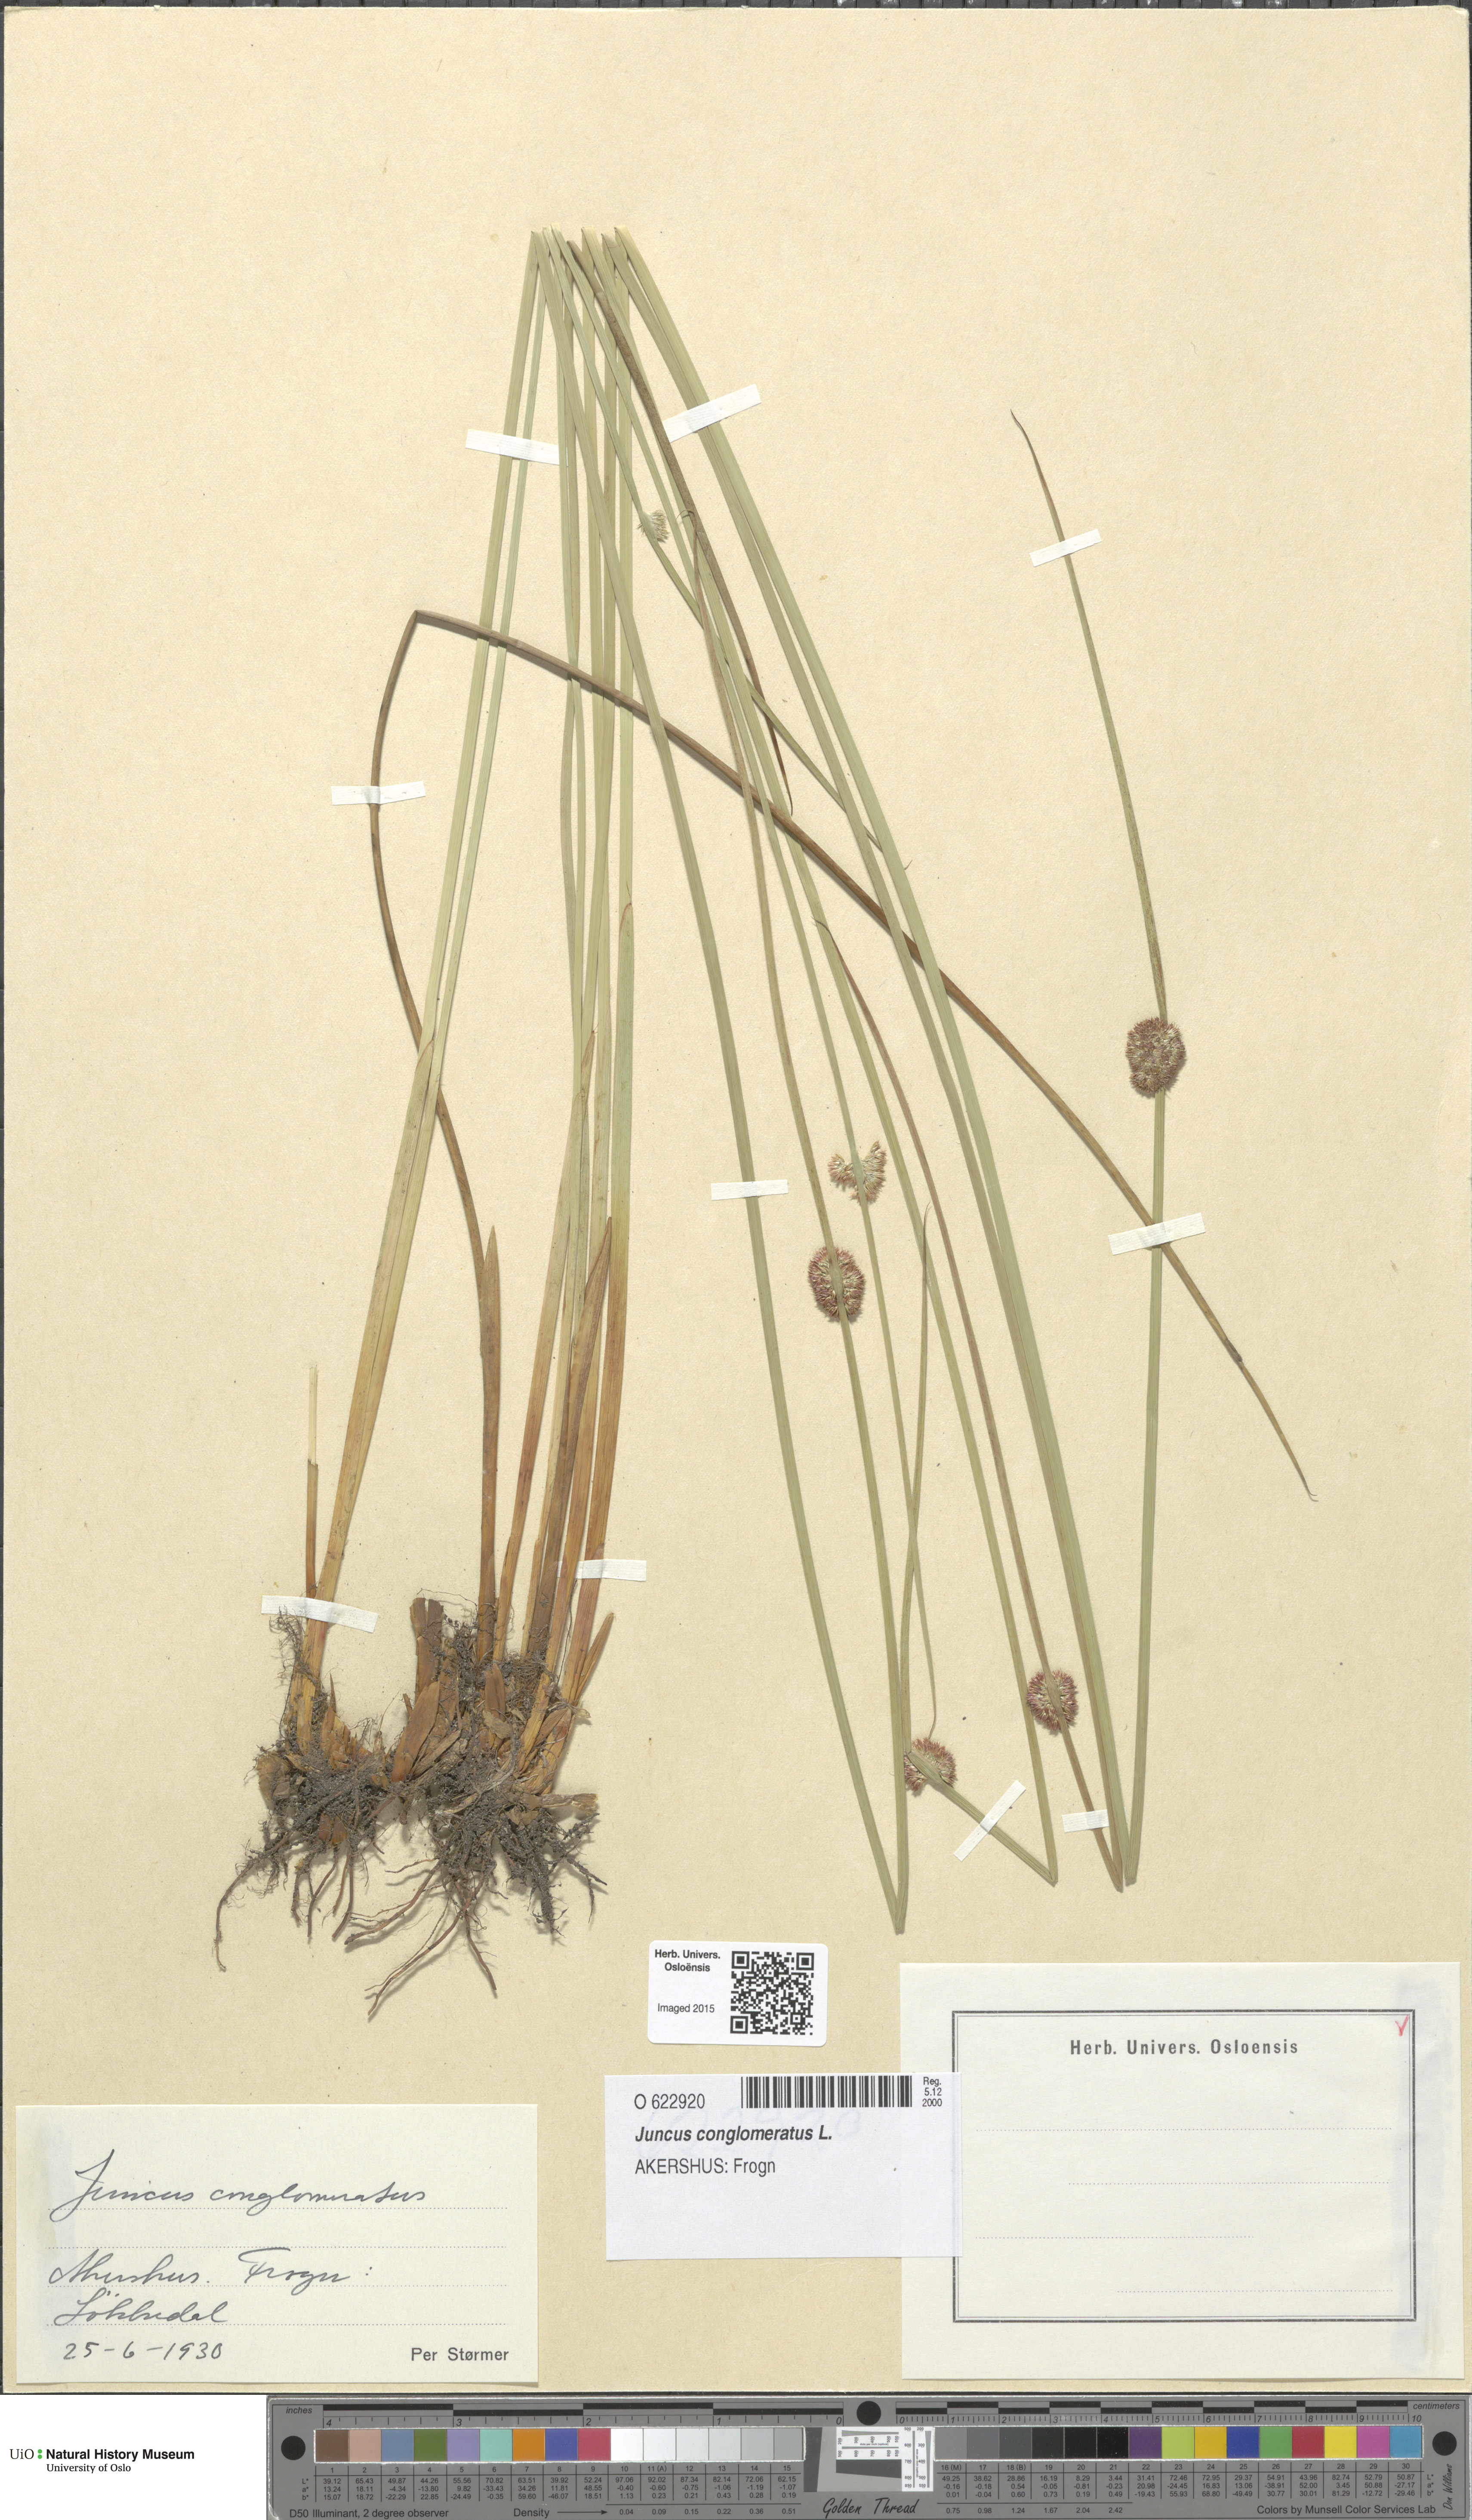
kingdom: Plantae
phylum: Tracheophyta
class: Liliopsida
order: Poales
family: Juncaceae
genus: Juncus
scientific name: Juncus conglomeratus
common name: Compact rush
